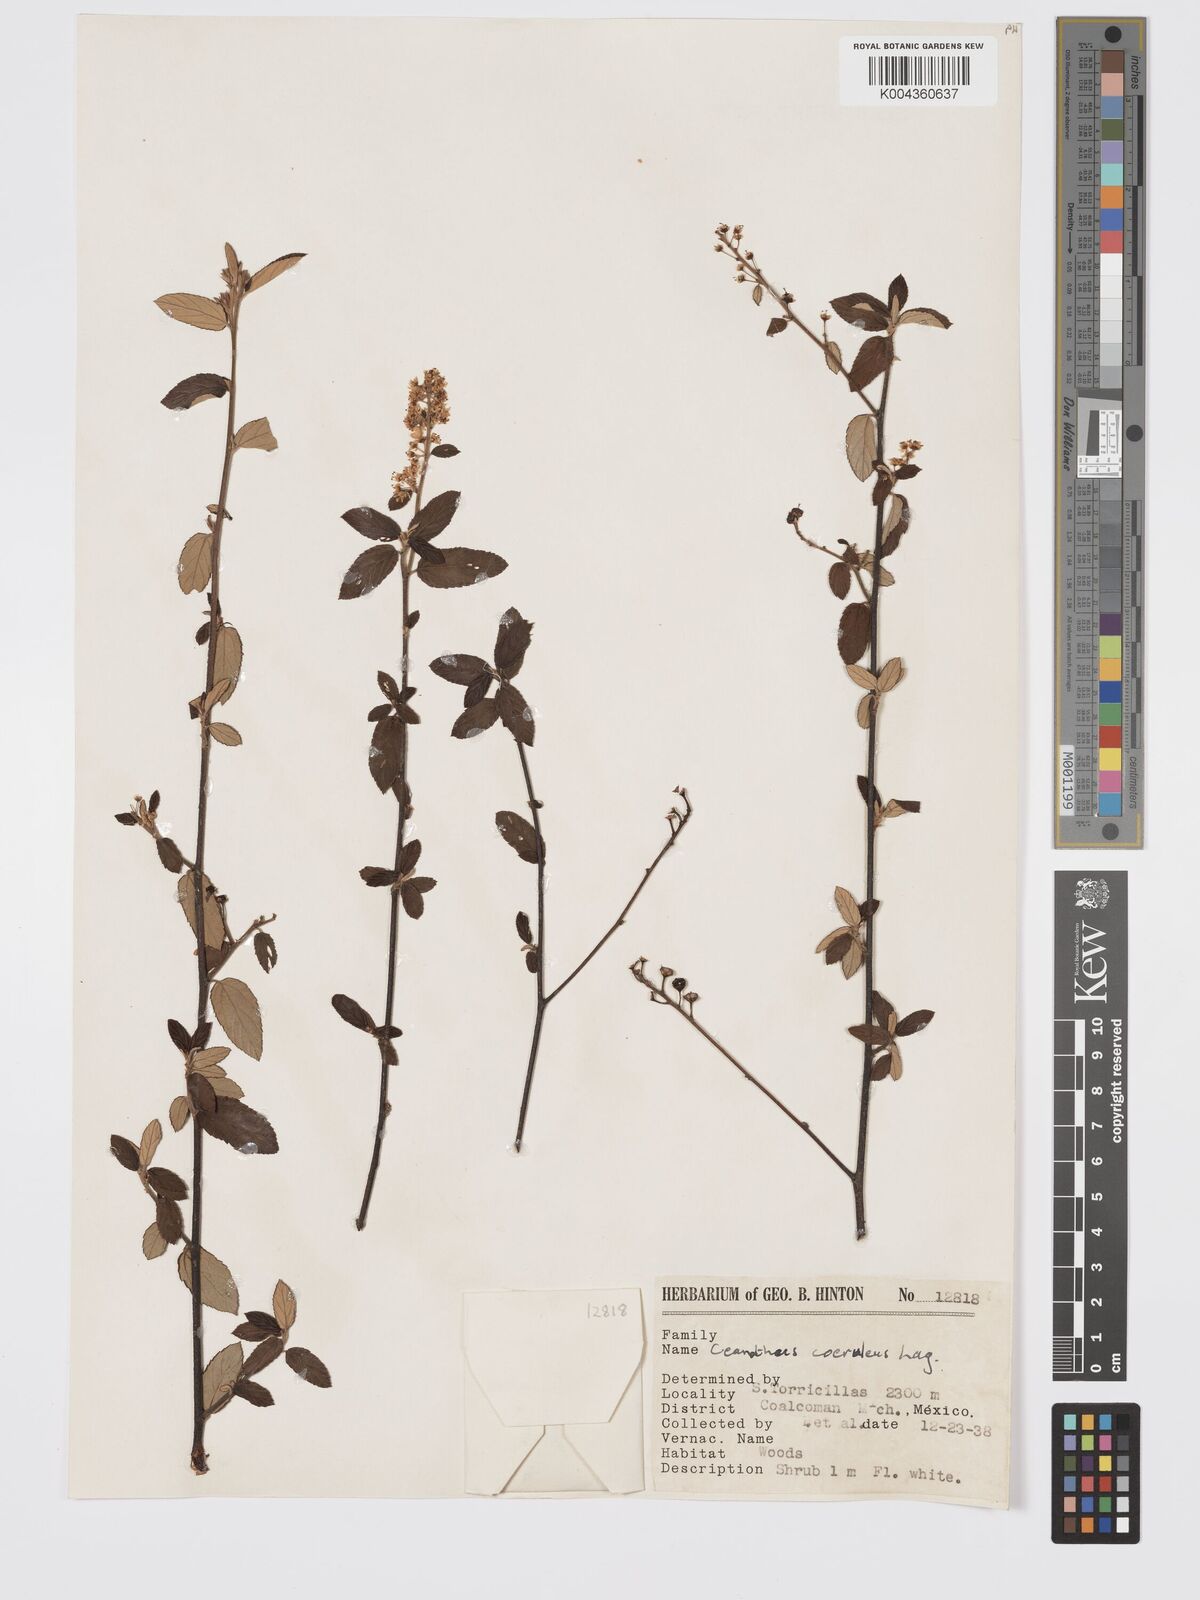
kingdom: Plantae
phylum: Tracheophyta
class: Magnoliopsida
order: Rosales
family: Rhamnaceae
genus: Ceanothus
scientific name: Ceanothus caeruleus
